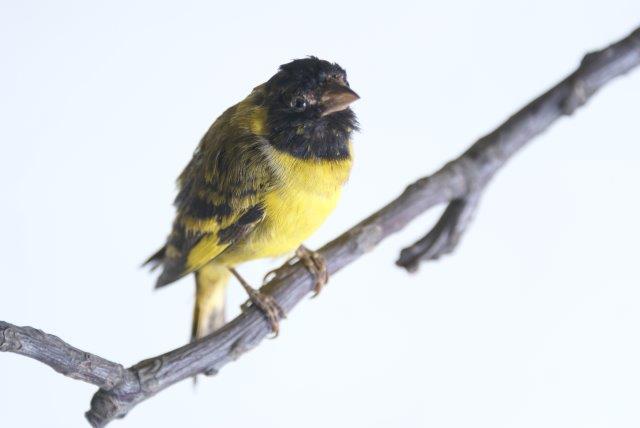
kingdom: Animalia
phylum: Chordata
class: Aves
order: Passeriformes
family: Fringillidae
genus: Spinus
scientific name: Spinus notatus
